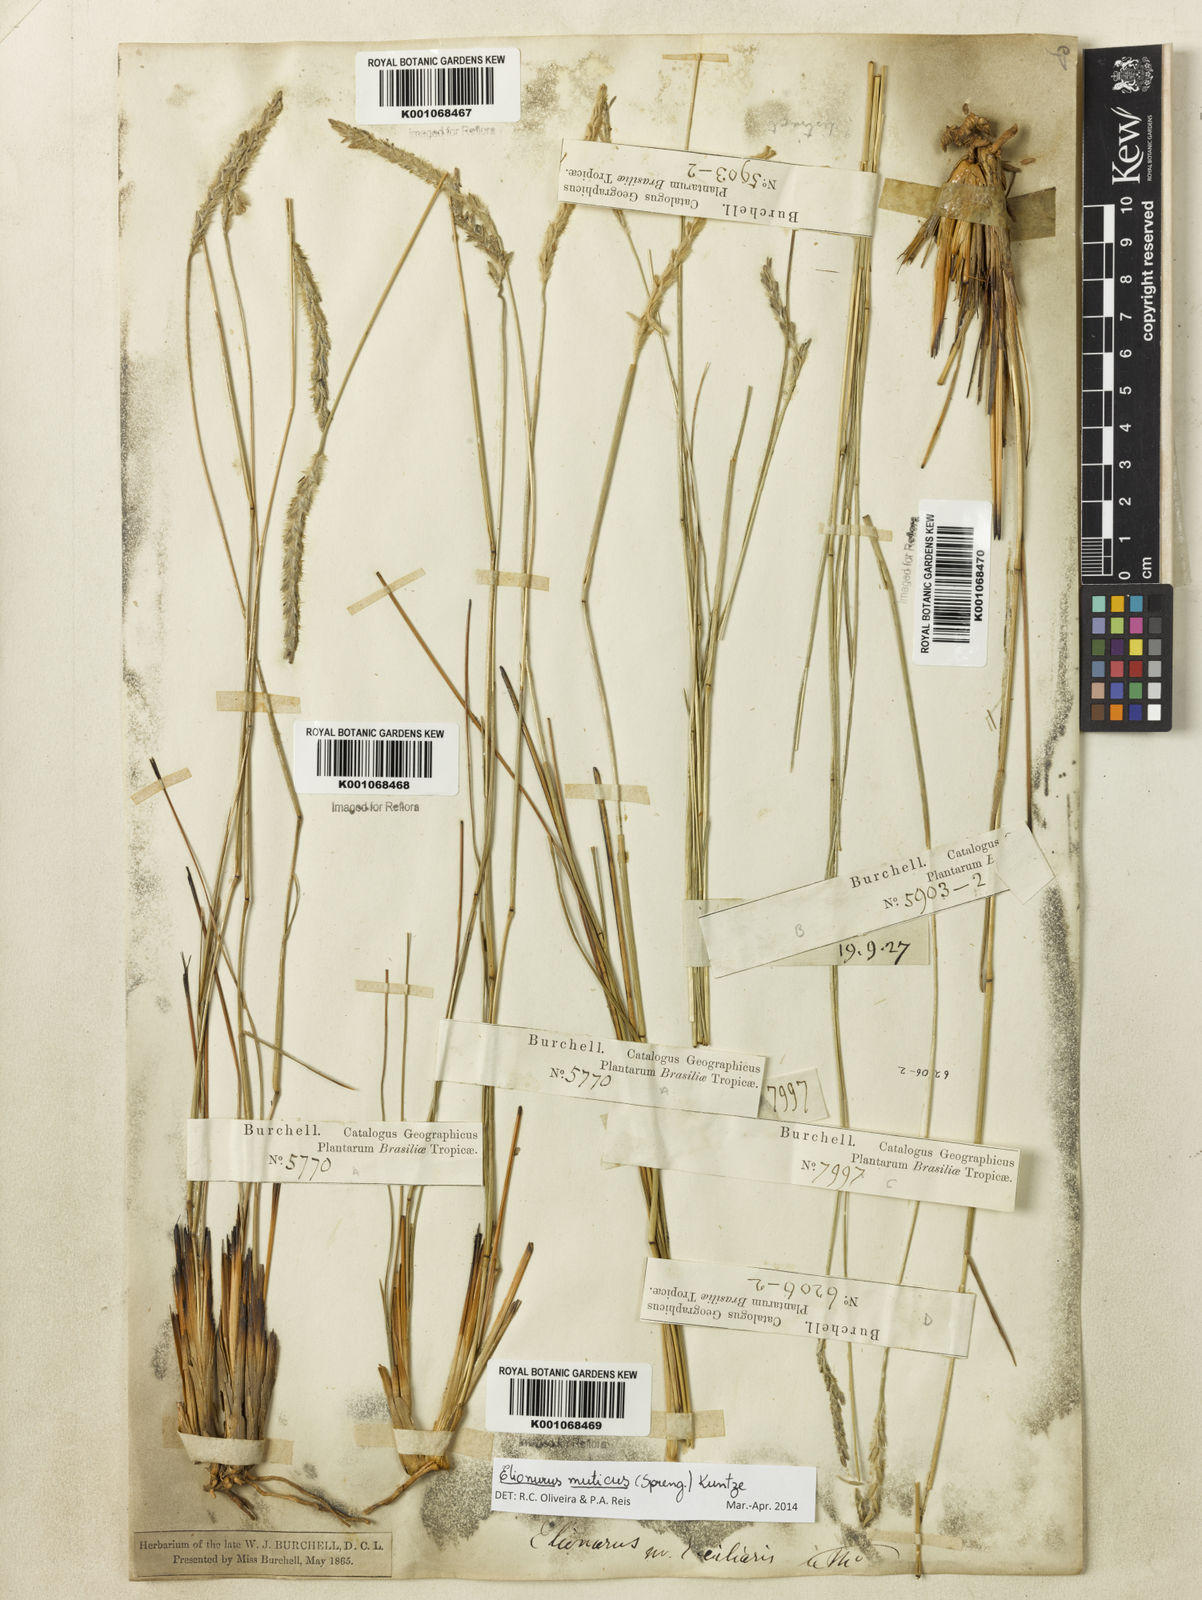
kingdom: Plantae
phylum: Tracheophyta
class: Liliopsida
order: Poales
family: Poaceae
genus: Elionurus
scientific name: Elionurus muticus
